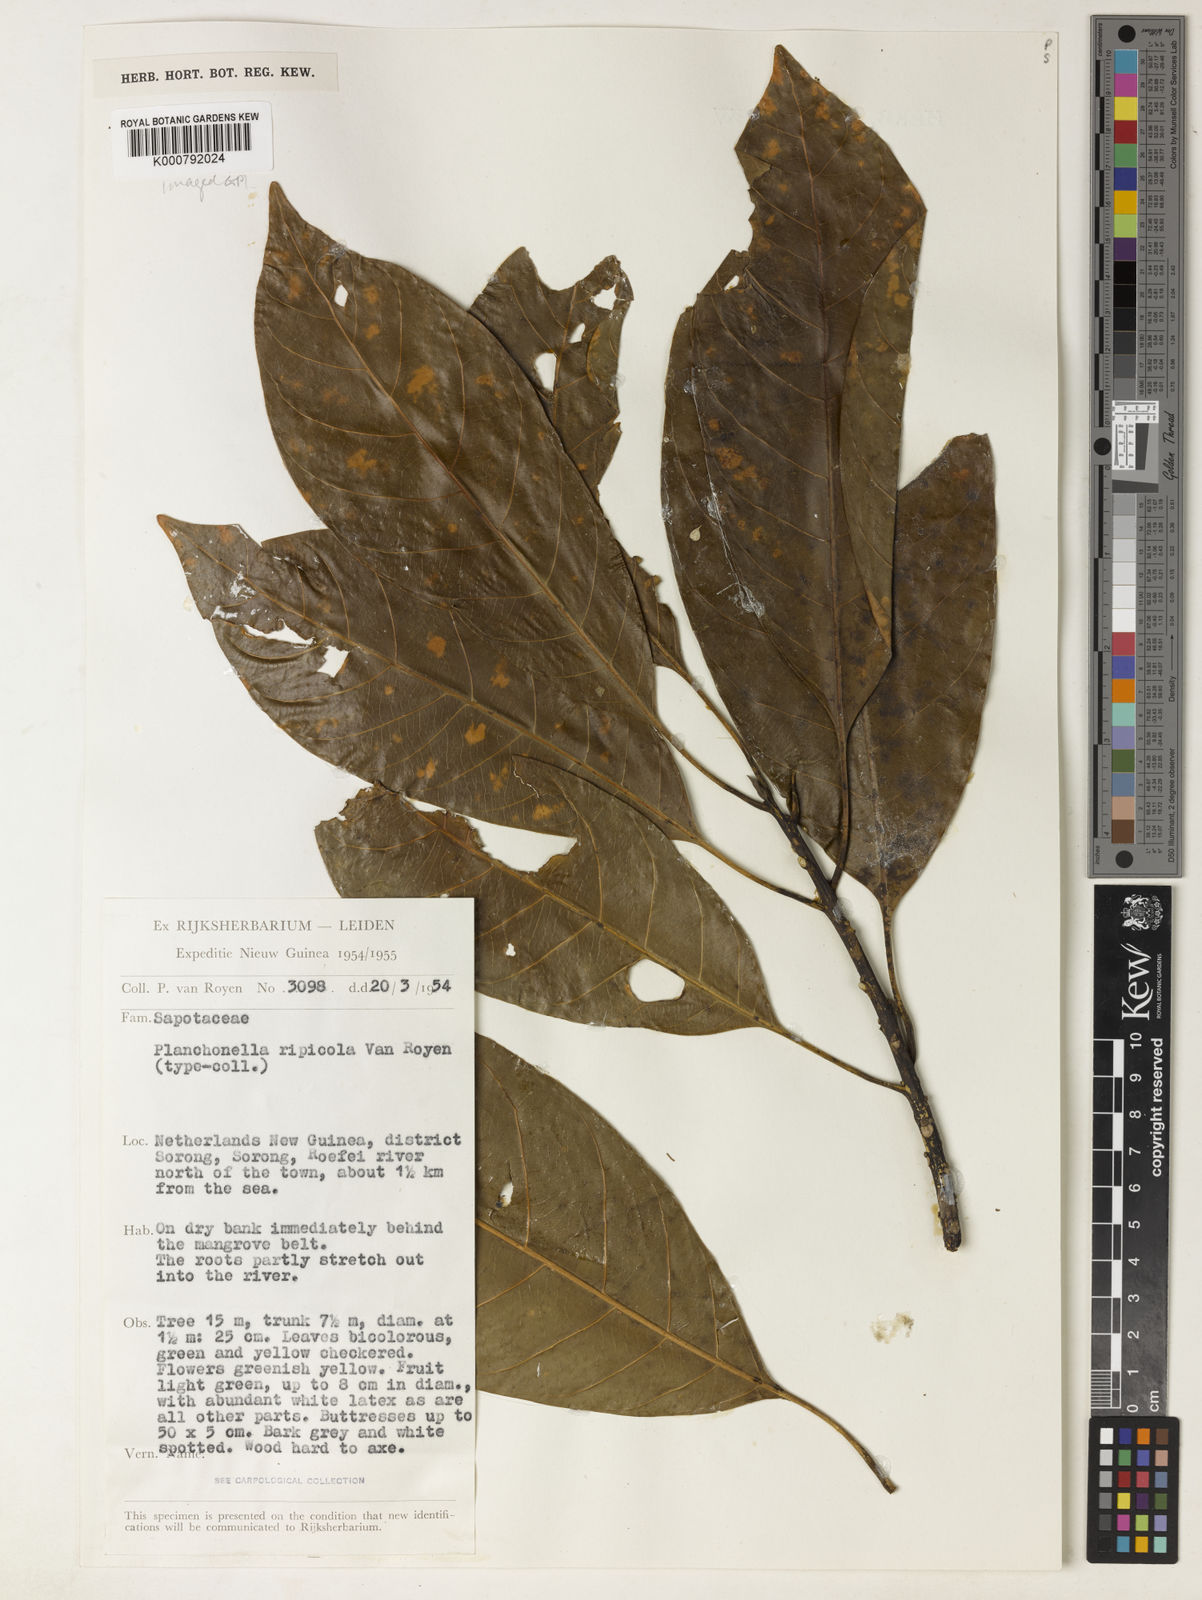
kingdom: Plantae
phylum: Tracheophyta
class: Magnoliopsida
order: Ericales
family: Sapotaceae
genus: Planchonella
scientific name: Planchonella xylocarpa
